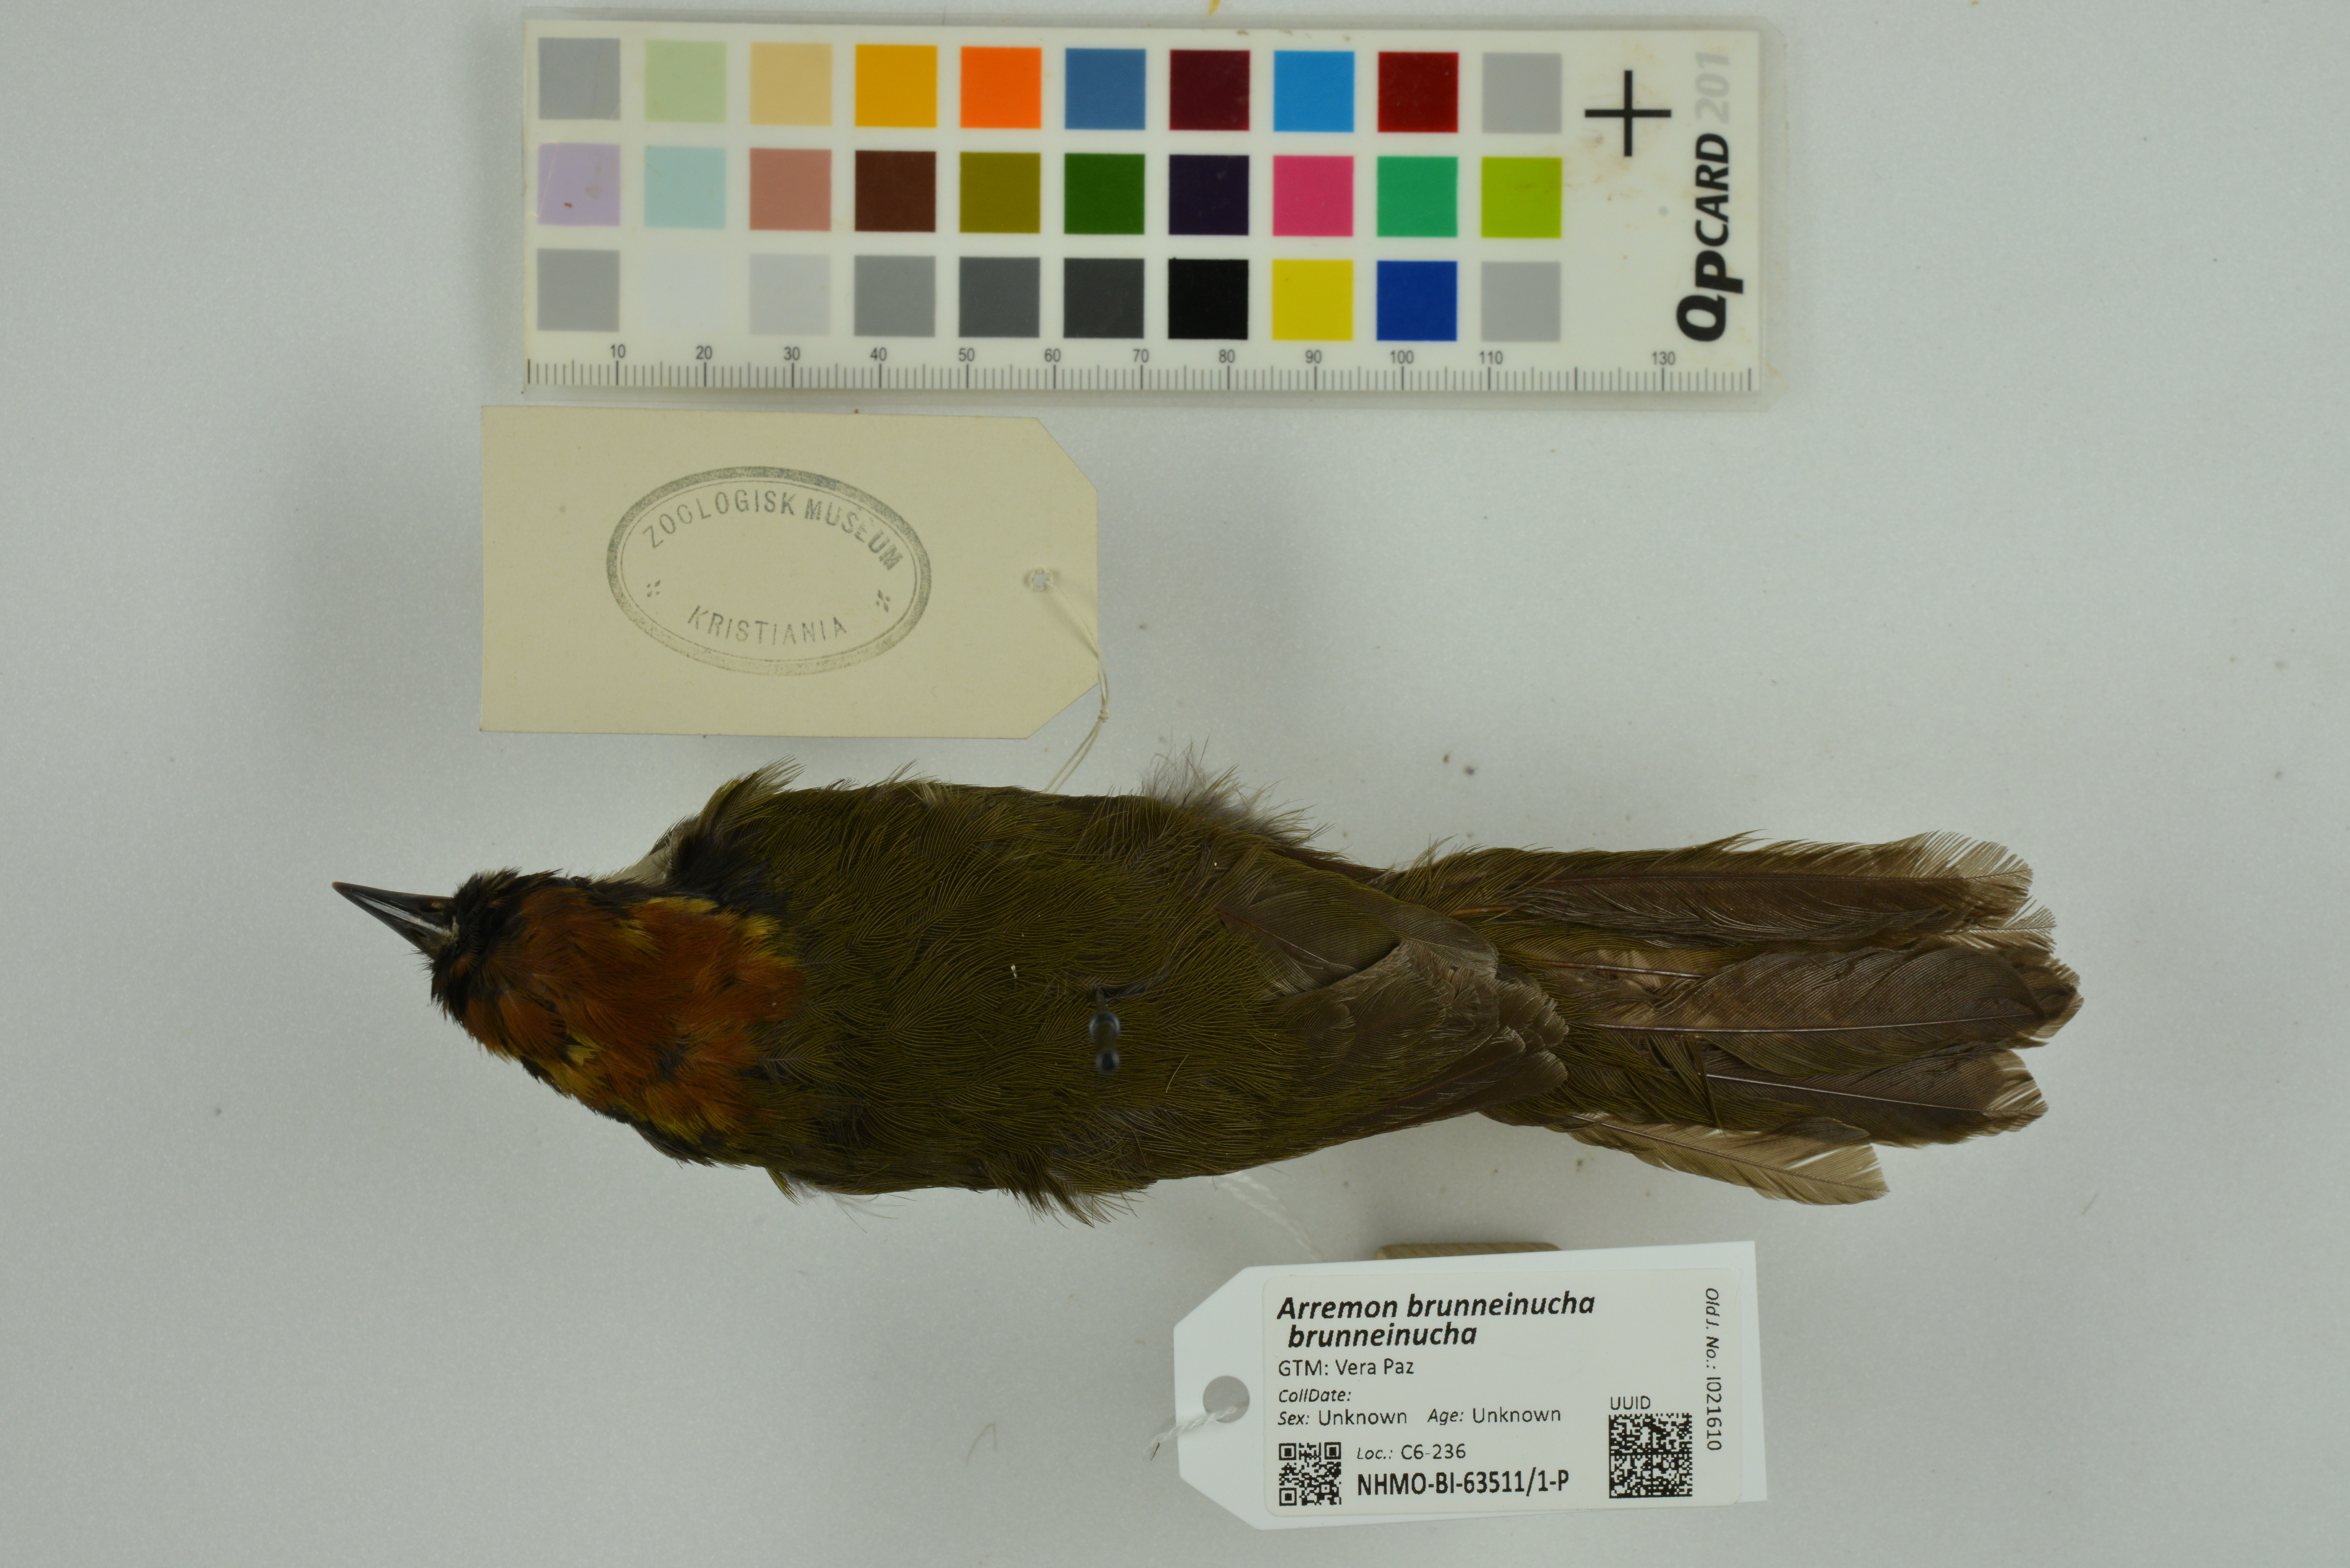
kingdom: Animalia
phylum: Chordata
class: Aves
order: Passeriformes
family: Passerellidae
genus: Arremon
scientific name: Arremon brunneinucha
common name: Chestnut-capped brushfinch
